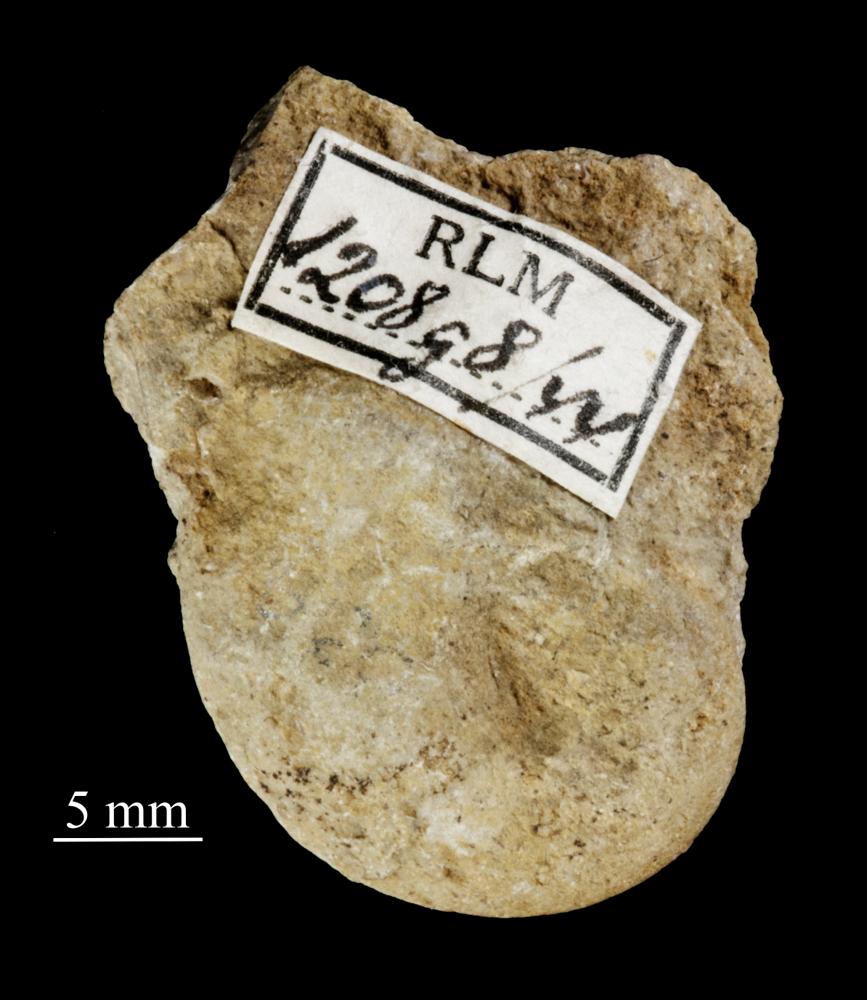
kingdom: Animalia
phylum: Mollusca
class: Gastropoda
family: Bellerophontidae
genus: Temnodiscus
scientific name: Temnodiscus accola
